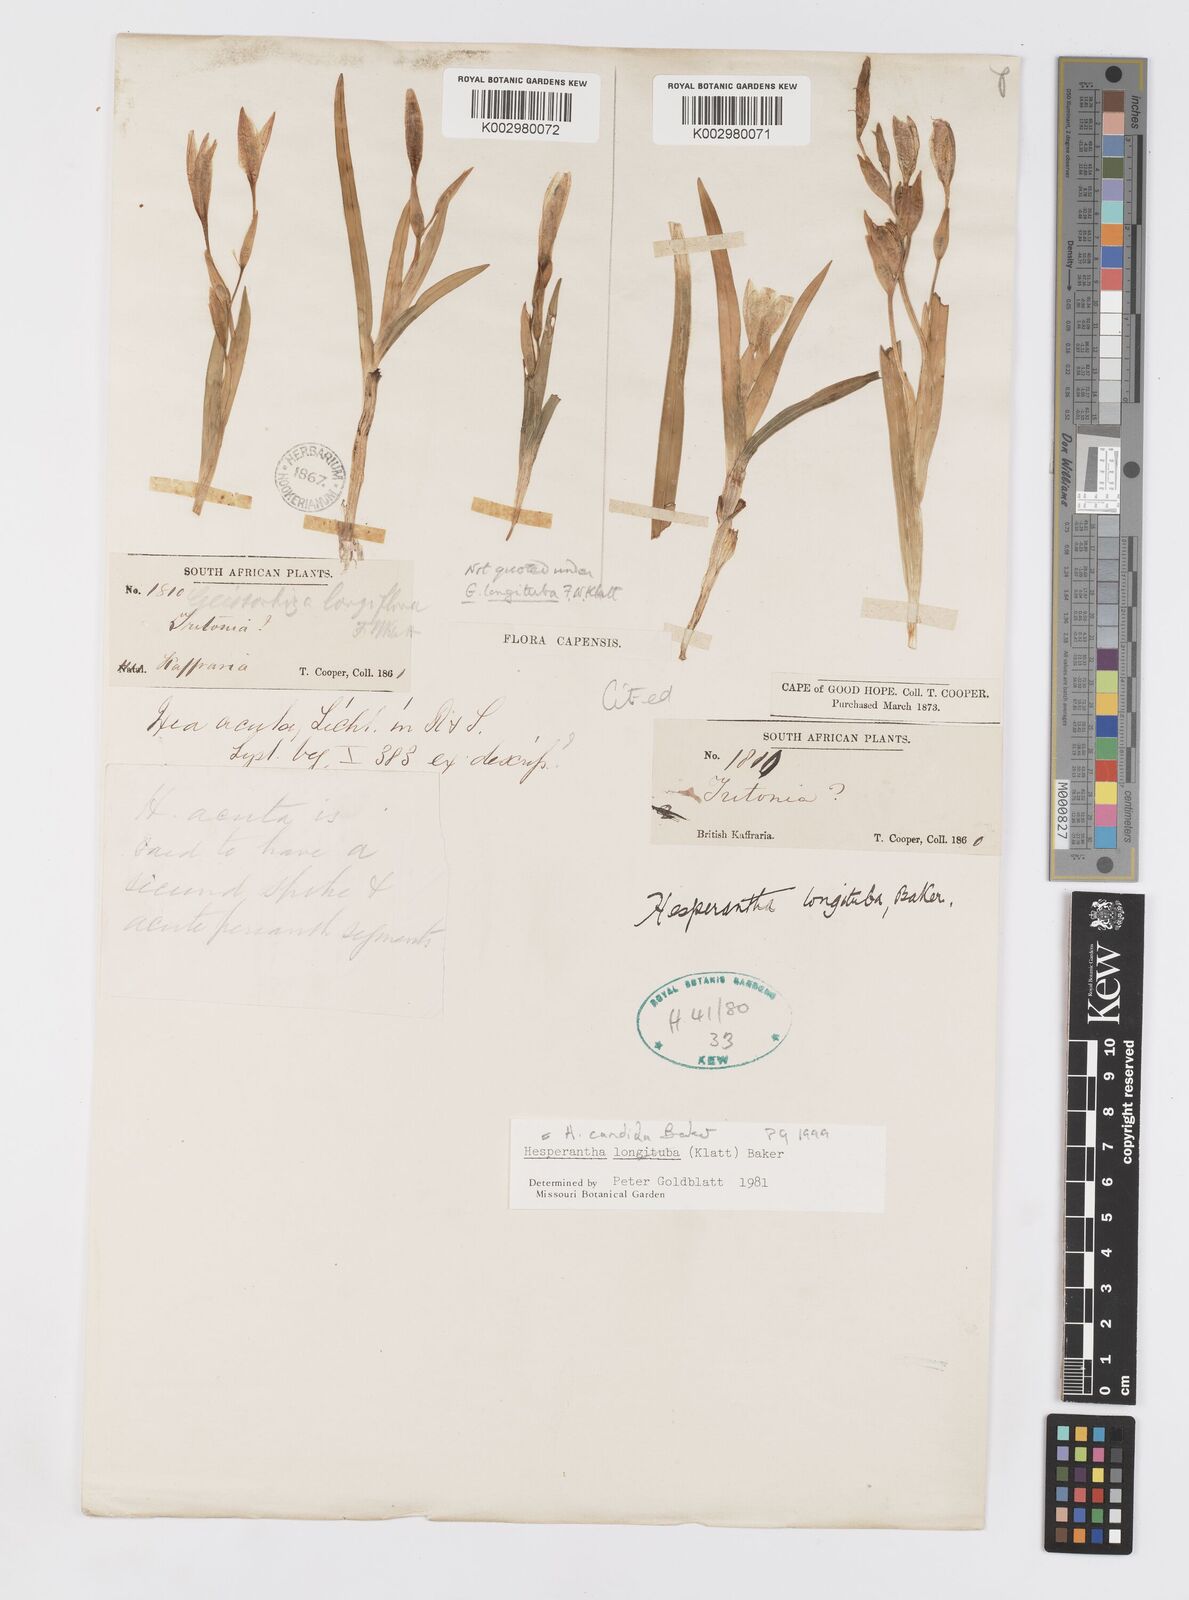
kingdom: Plantae
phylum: Tracheophyta
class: Liliopsida
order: Asparagales
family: Iridaceae
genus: Hesperantha
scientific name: Hesperantha candida
